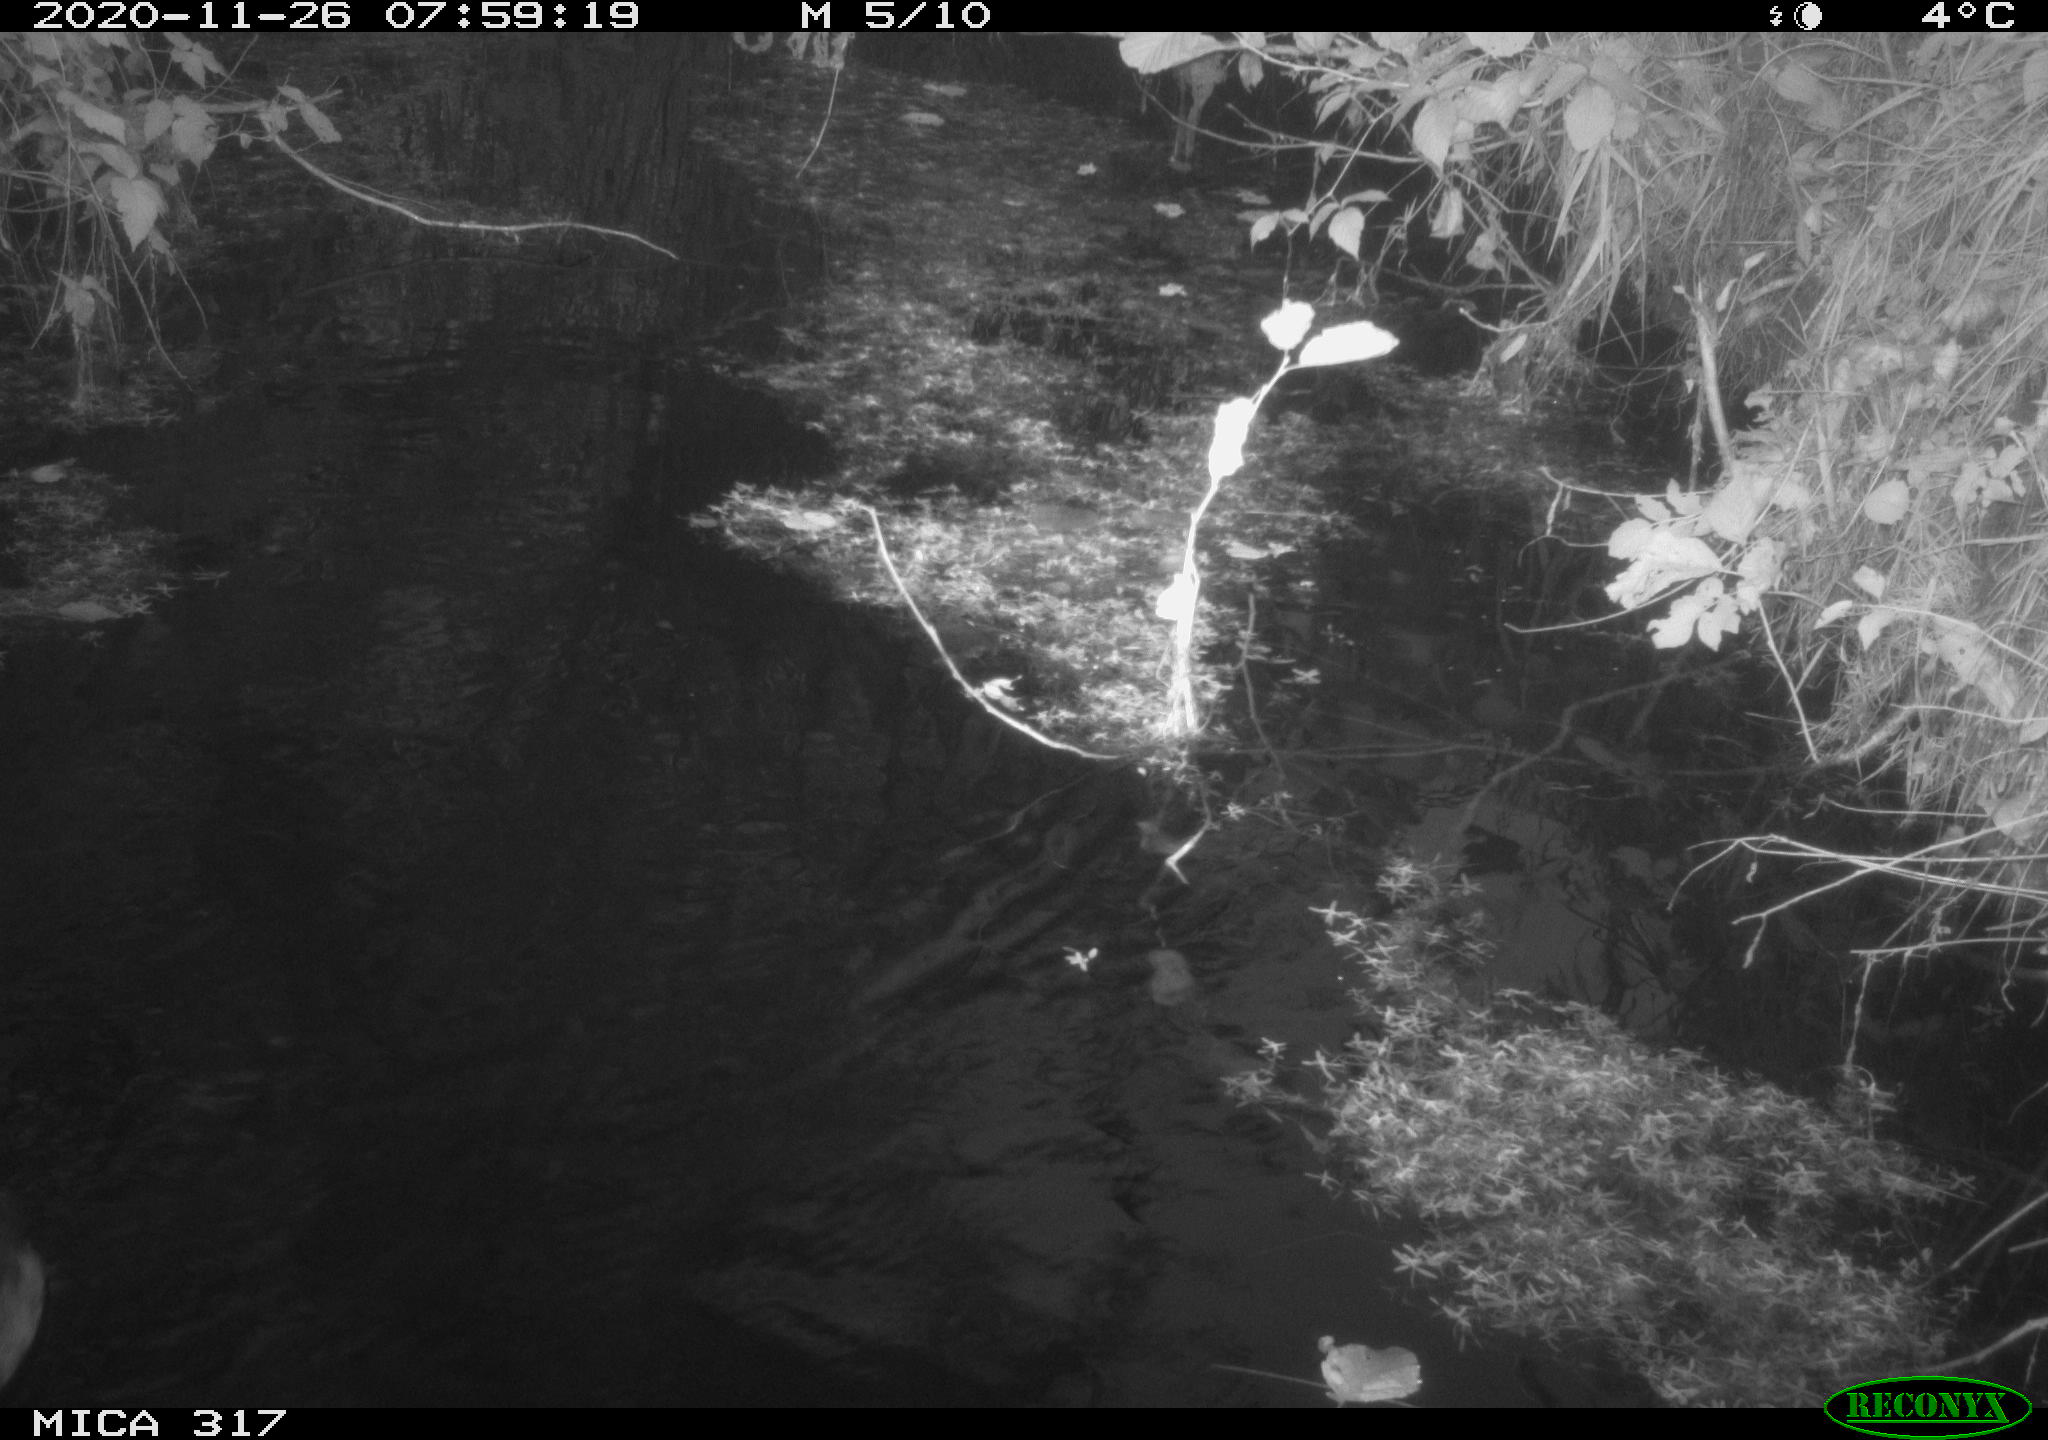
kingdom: Animalia
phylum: Chordata
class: Aves
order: Gruiformes
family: Rallidae
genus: Fulica
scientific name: Fulica atra
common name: Eurasian coot
